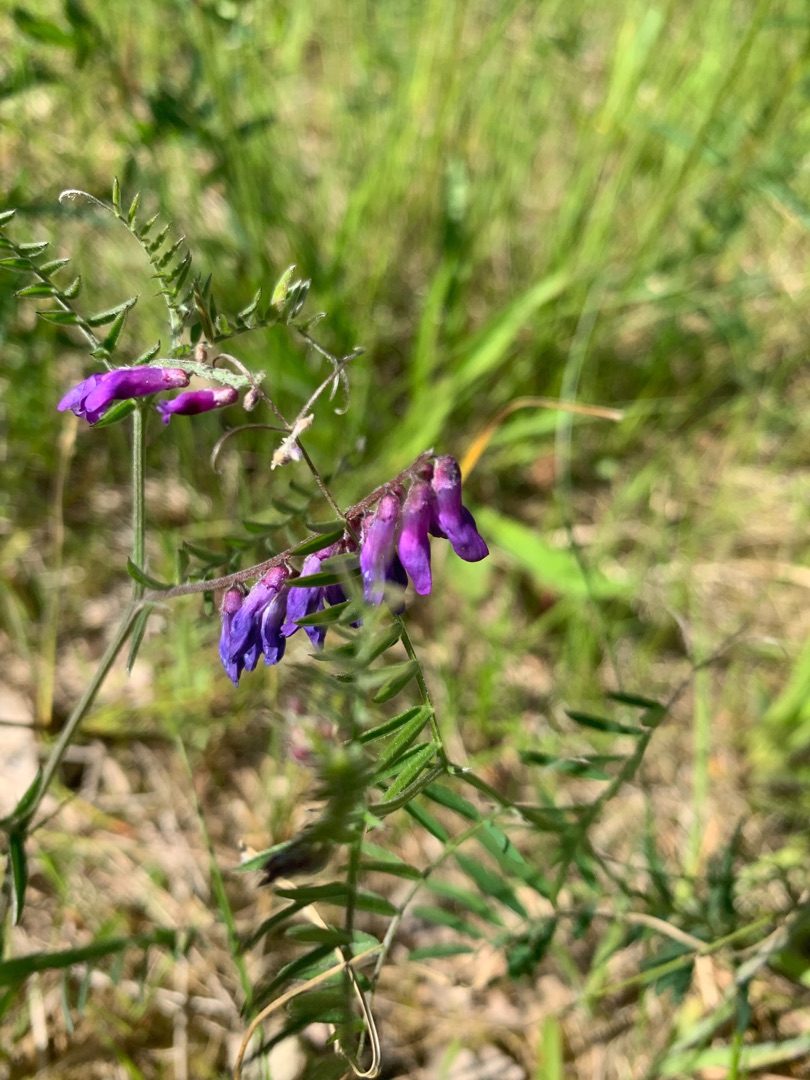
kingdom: Plantae
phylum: Tracheophyta
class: Magnoliopsida
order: Fabales
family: Fabaceae
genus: Vicia
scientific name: Vicia cracca
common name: Muse-vikke
